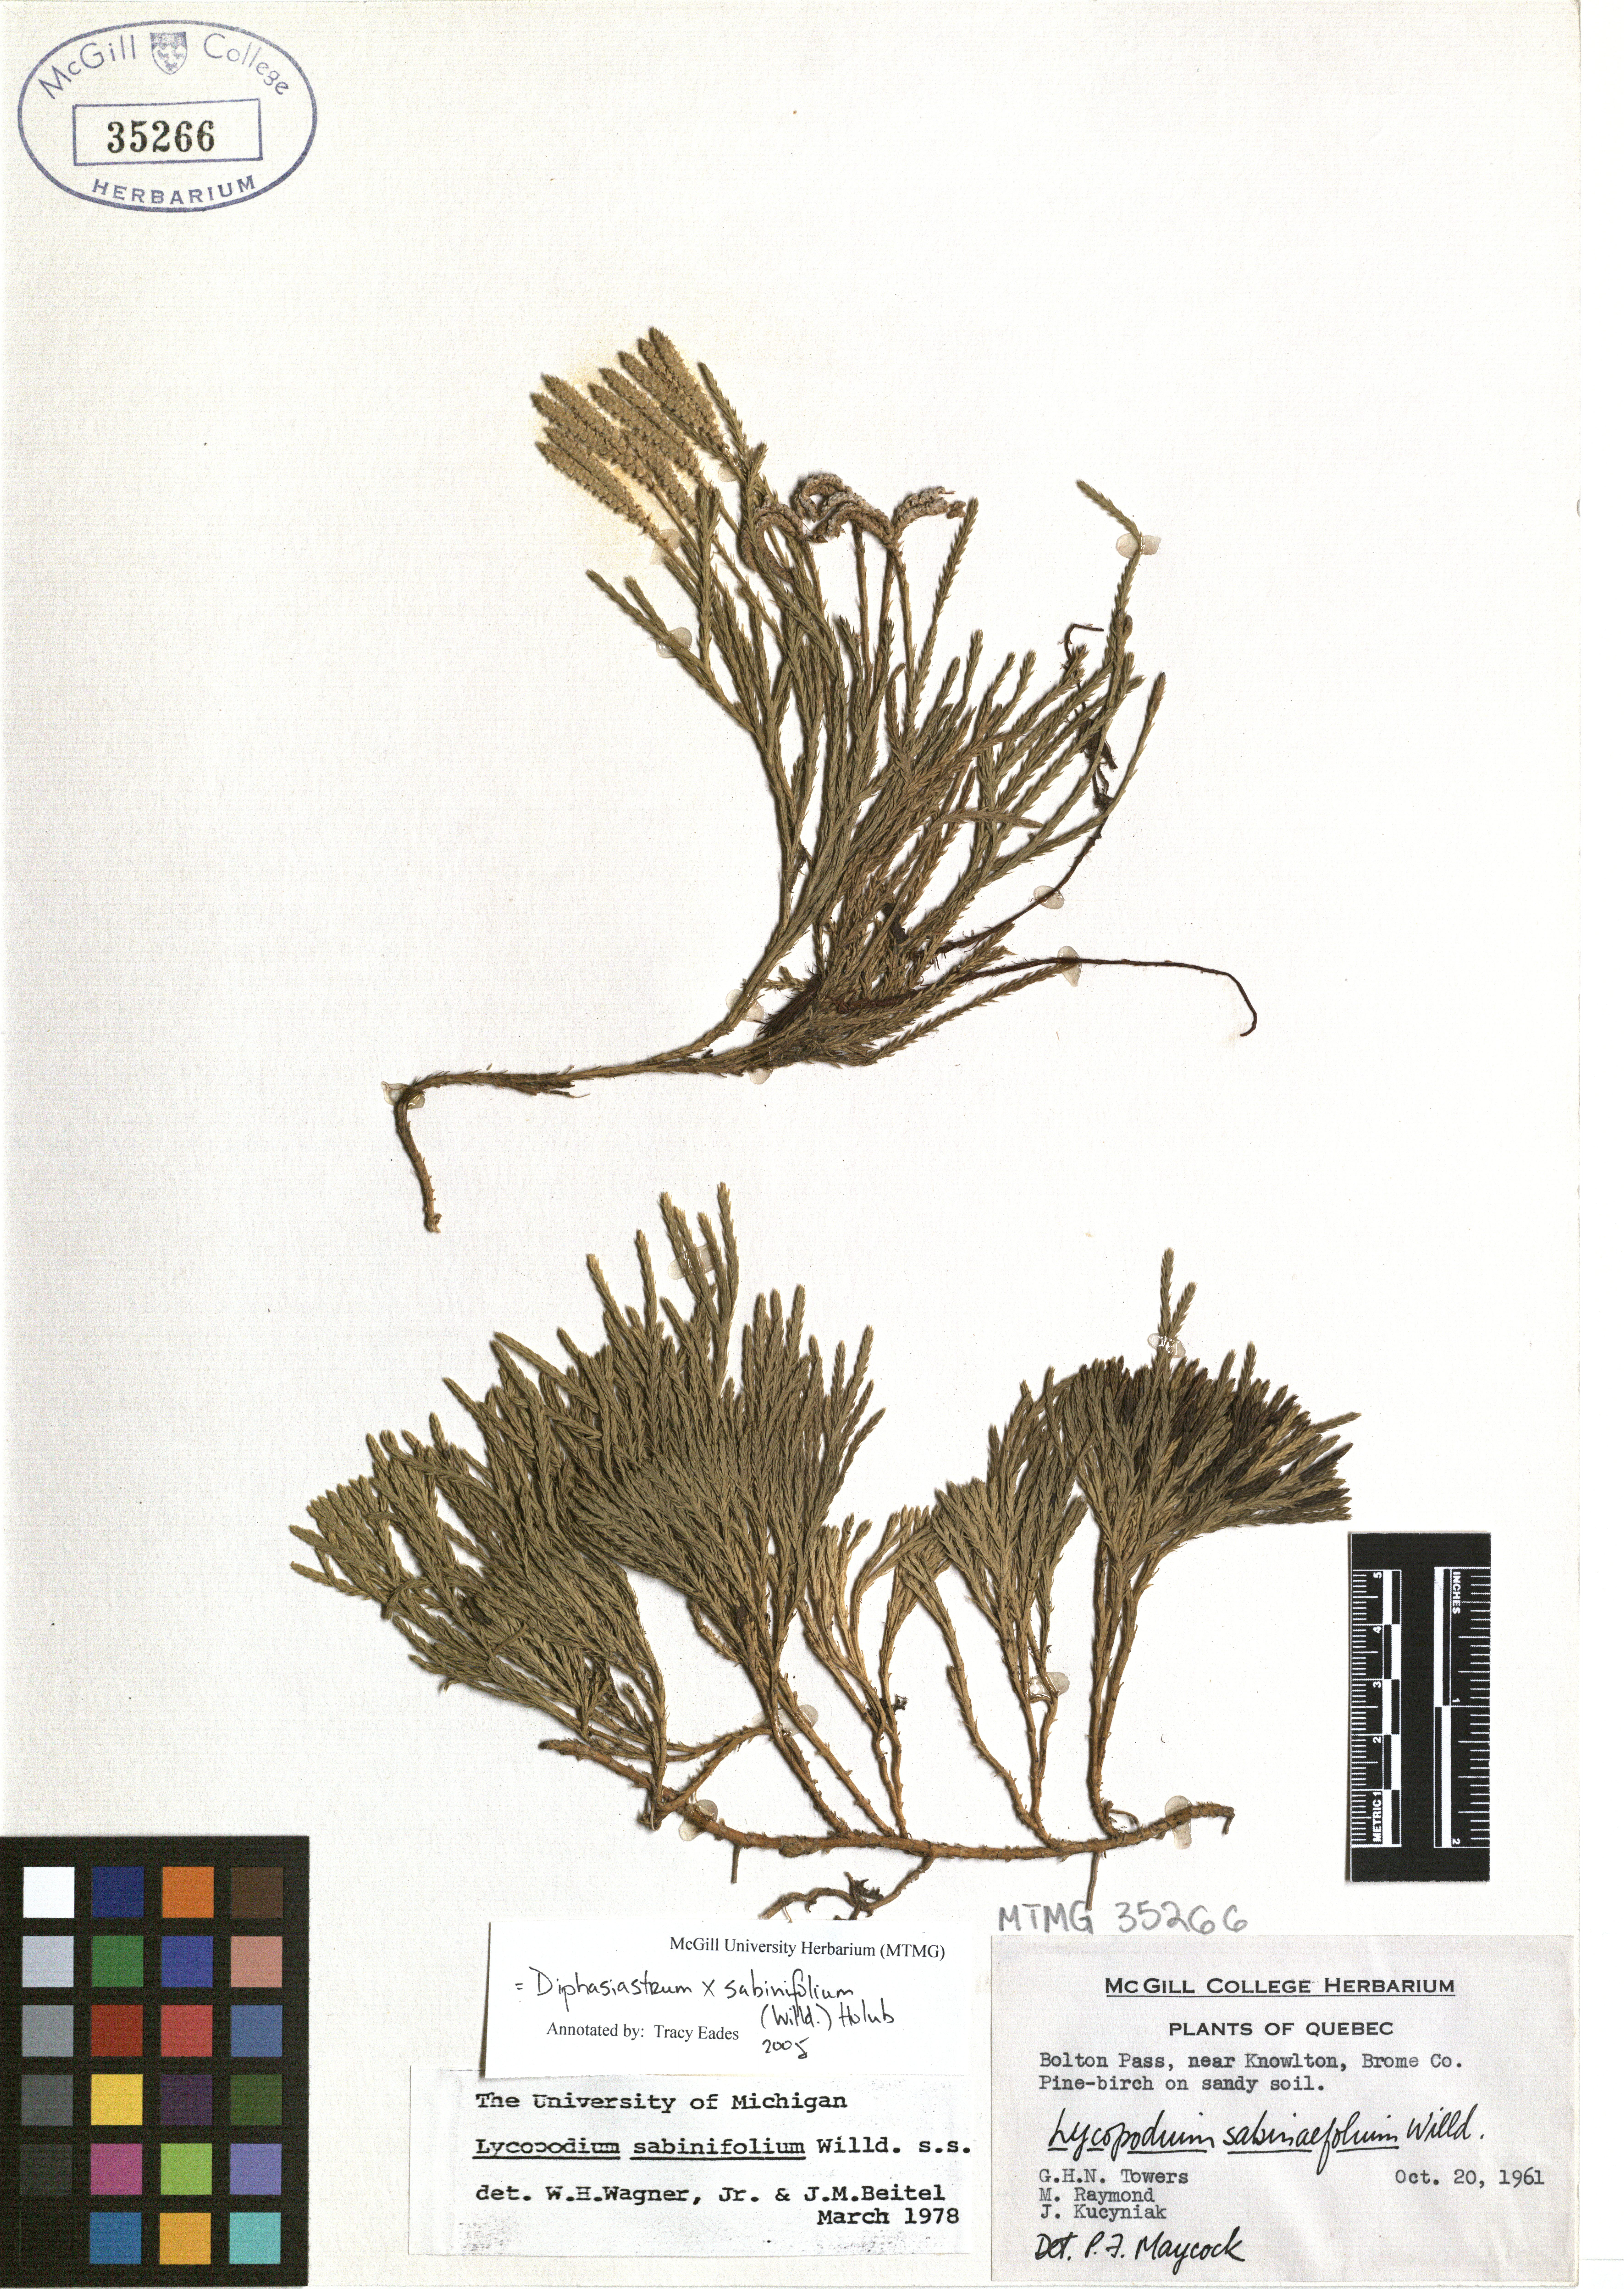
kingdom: Plantae
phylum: Tracheophyta
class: Lycopodiopsida
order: Lycopodiales
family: Lycopodiaceae
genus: Diphasiastrum
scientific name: Diphasiastrum sabinifolium
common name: Juniper clubmoss
